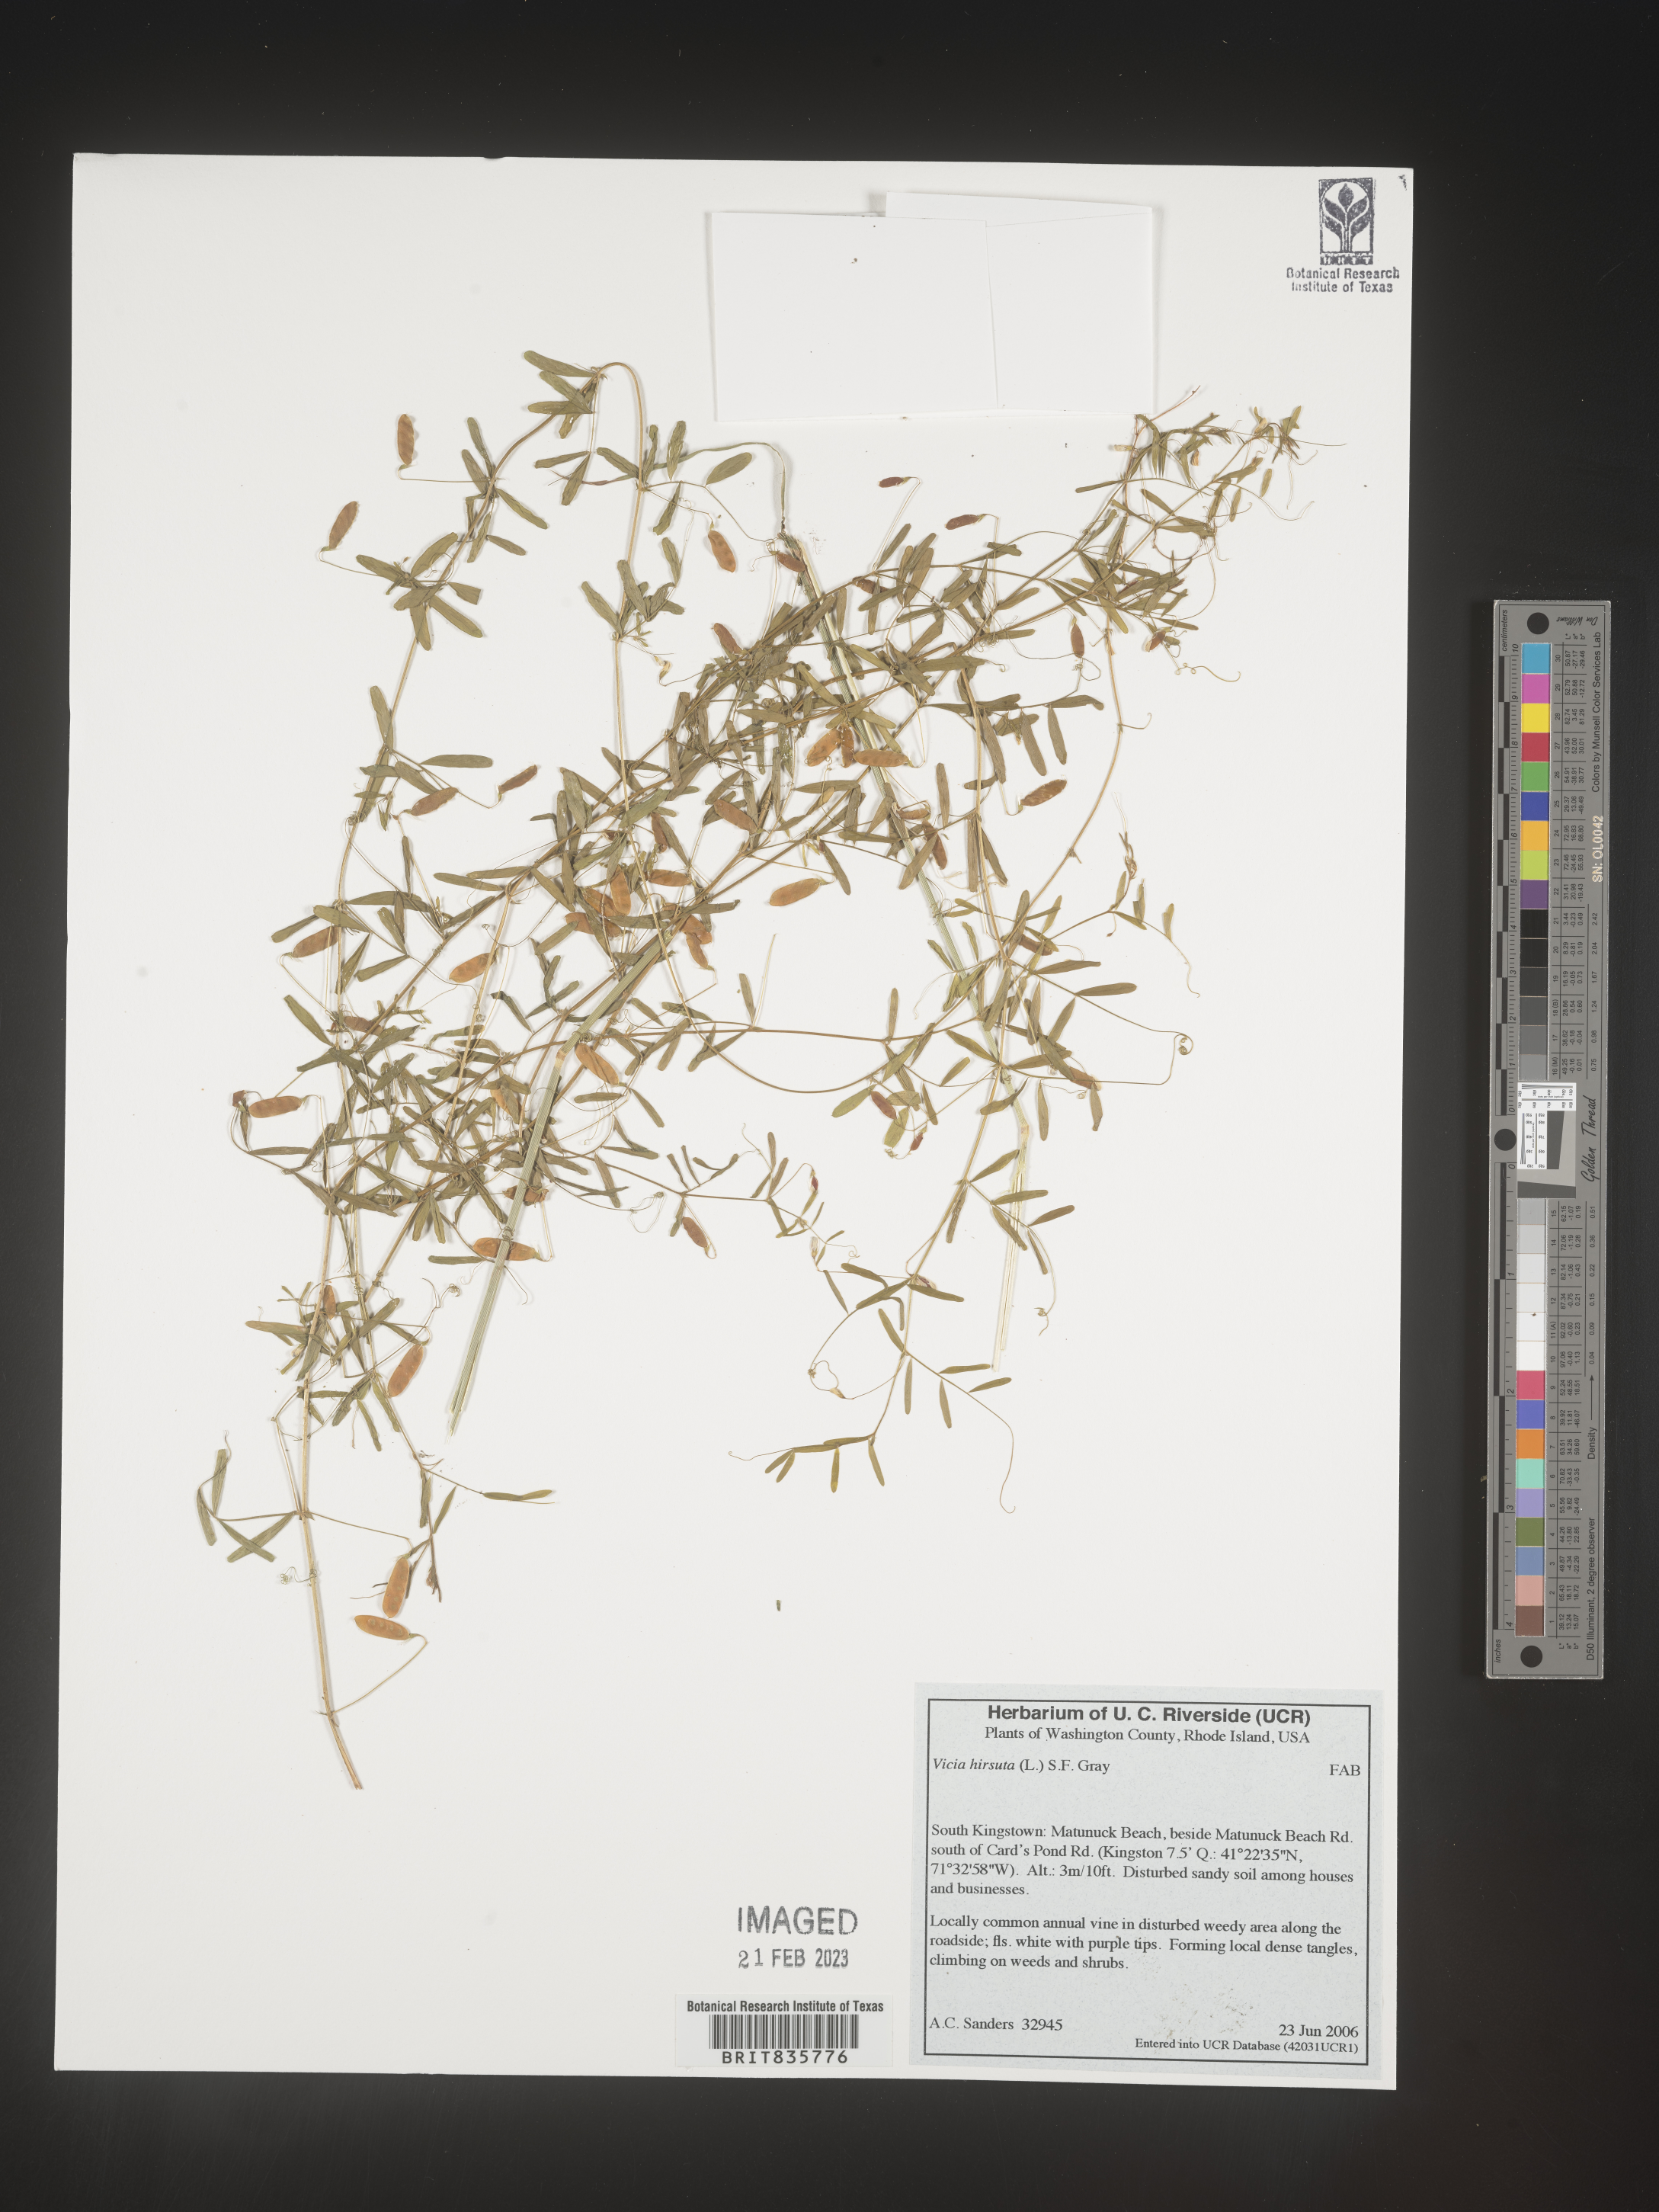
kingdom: Plantae
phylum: Tracheophyta
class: Magnoliopsida
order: Fabales
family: Fabaceae
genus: Vicia
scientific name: Vicia
